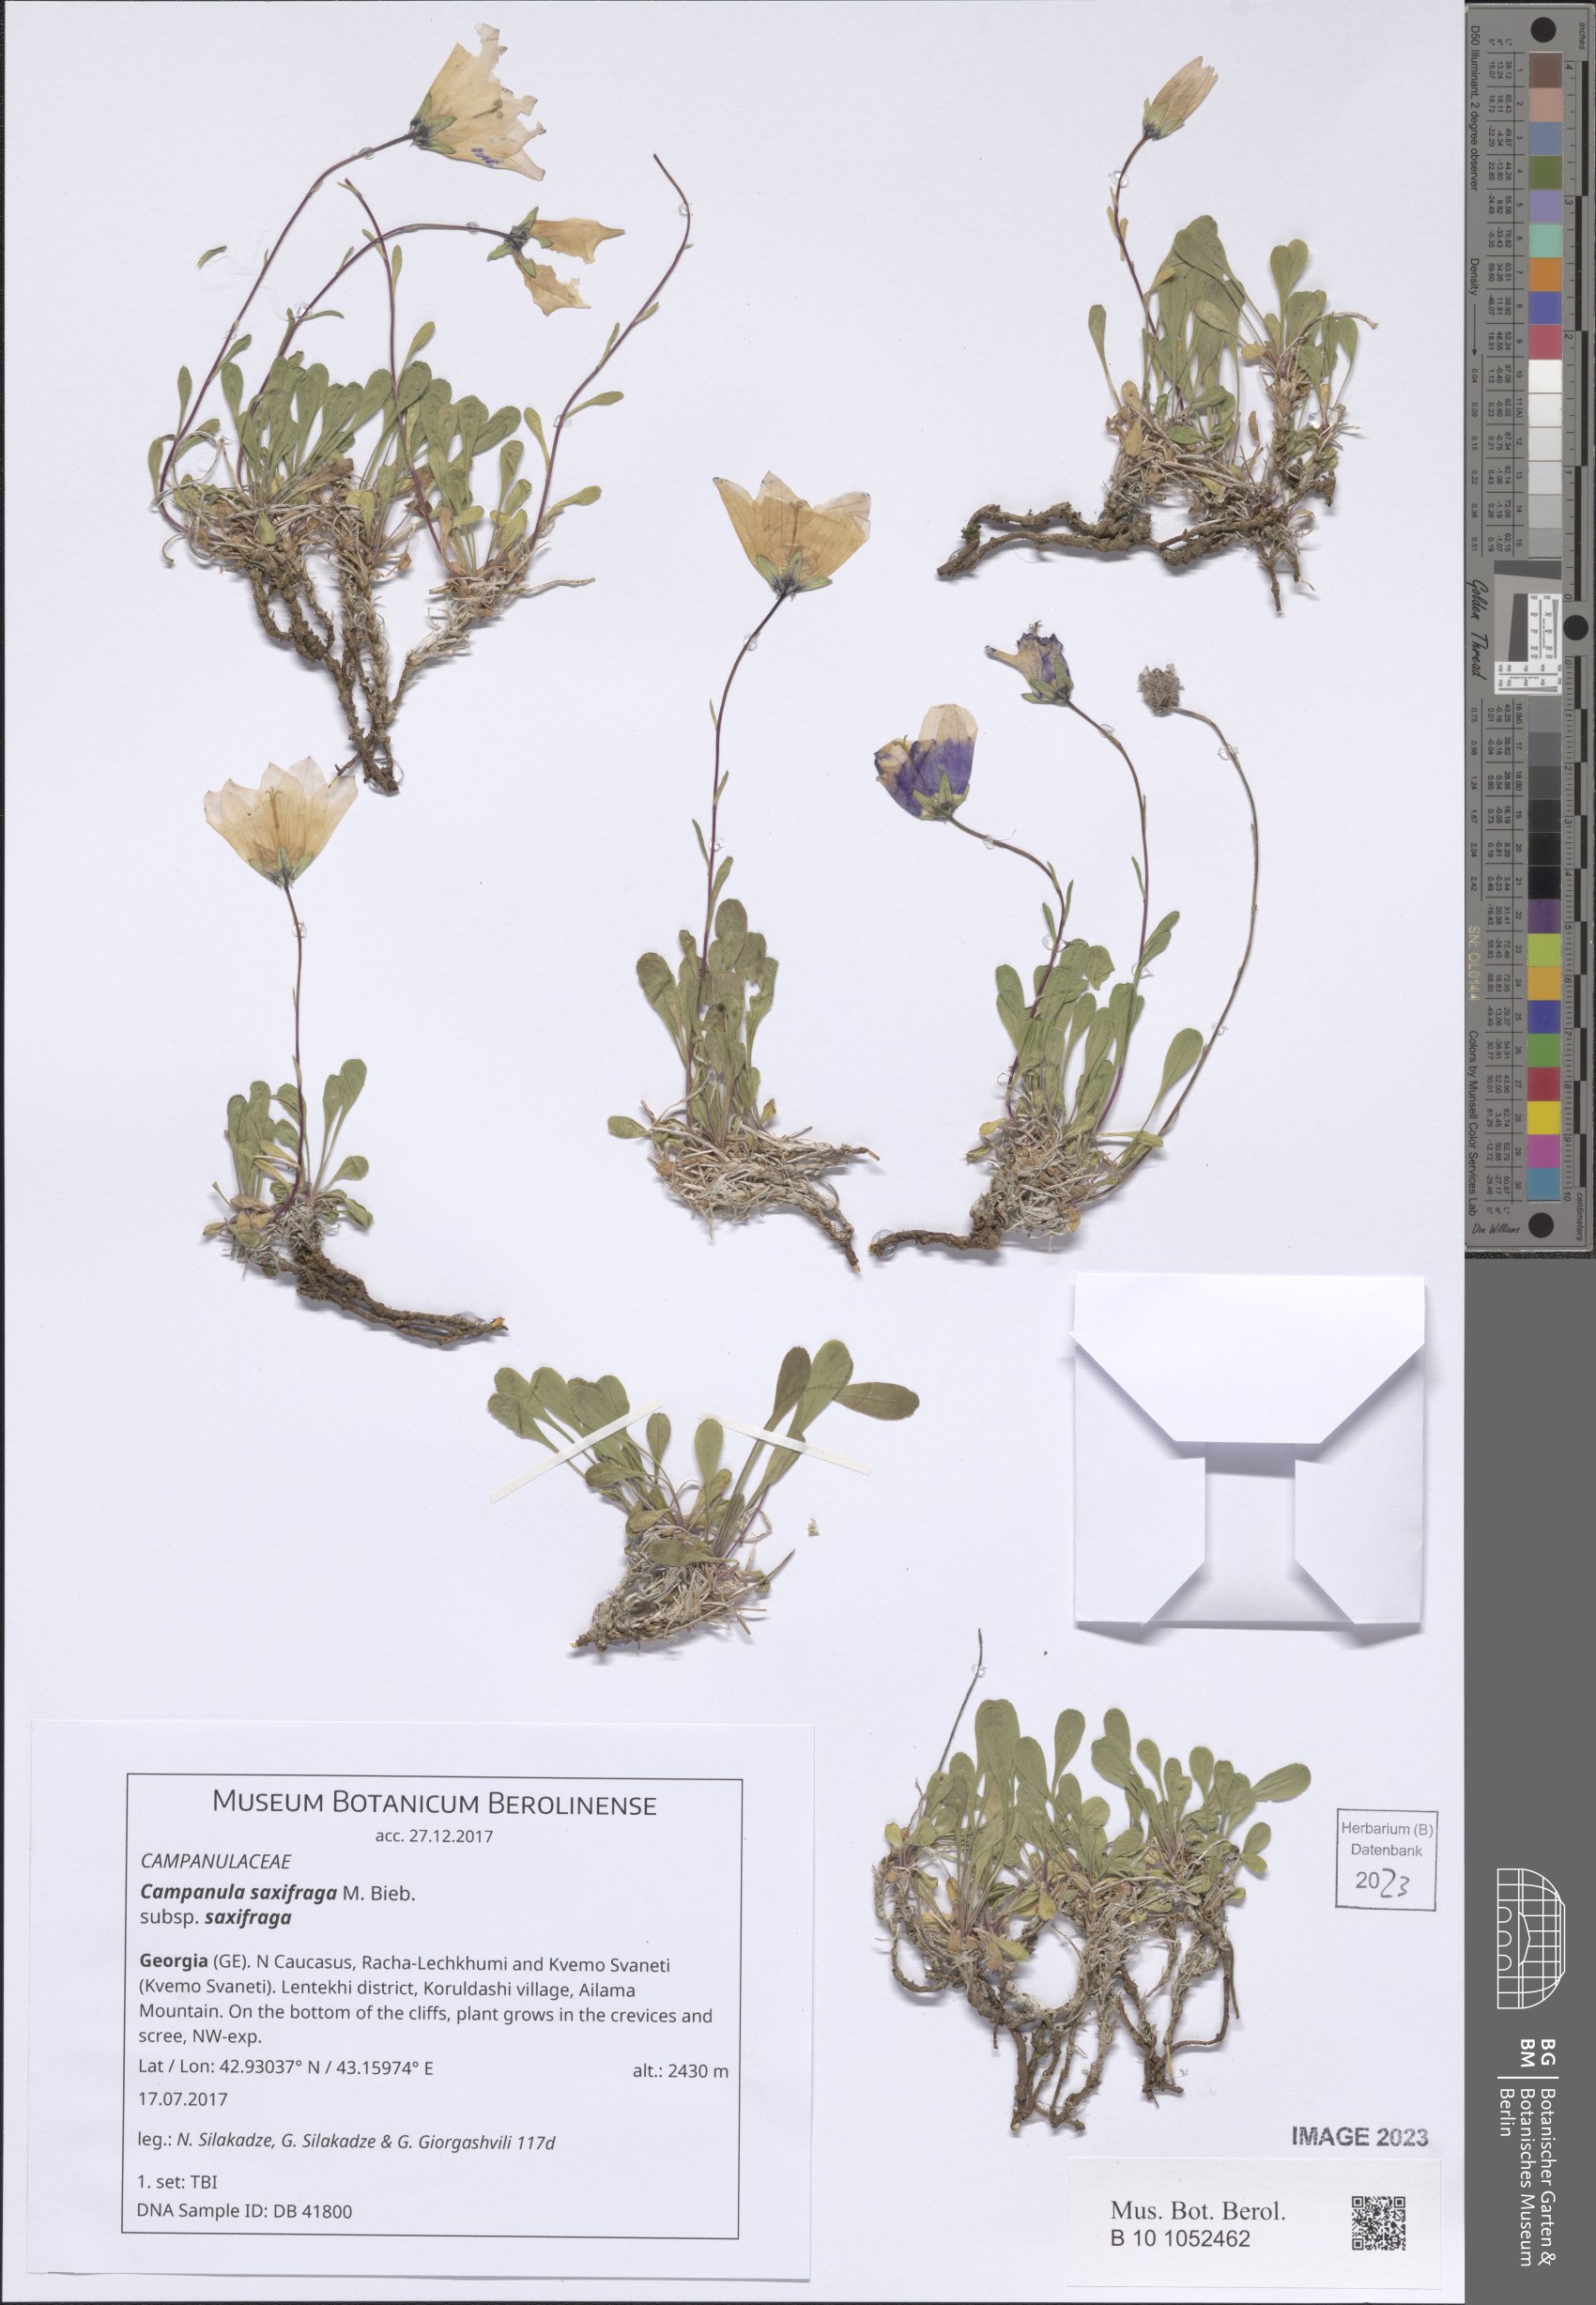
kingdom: Plantae
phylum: Tracheophyta
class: Magnoliopsida
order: Asterales
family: Campanulaceae
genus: Campanula
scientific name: Campanula saxifraga
